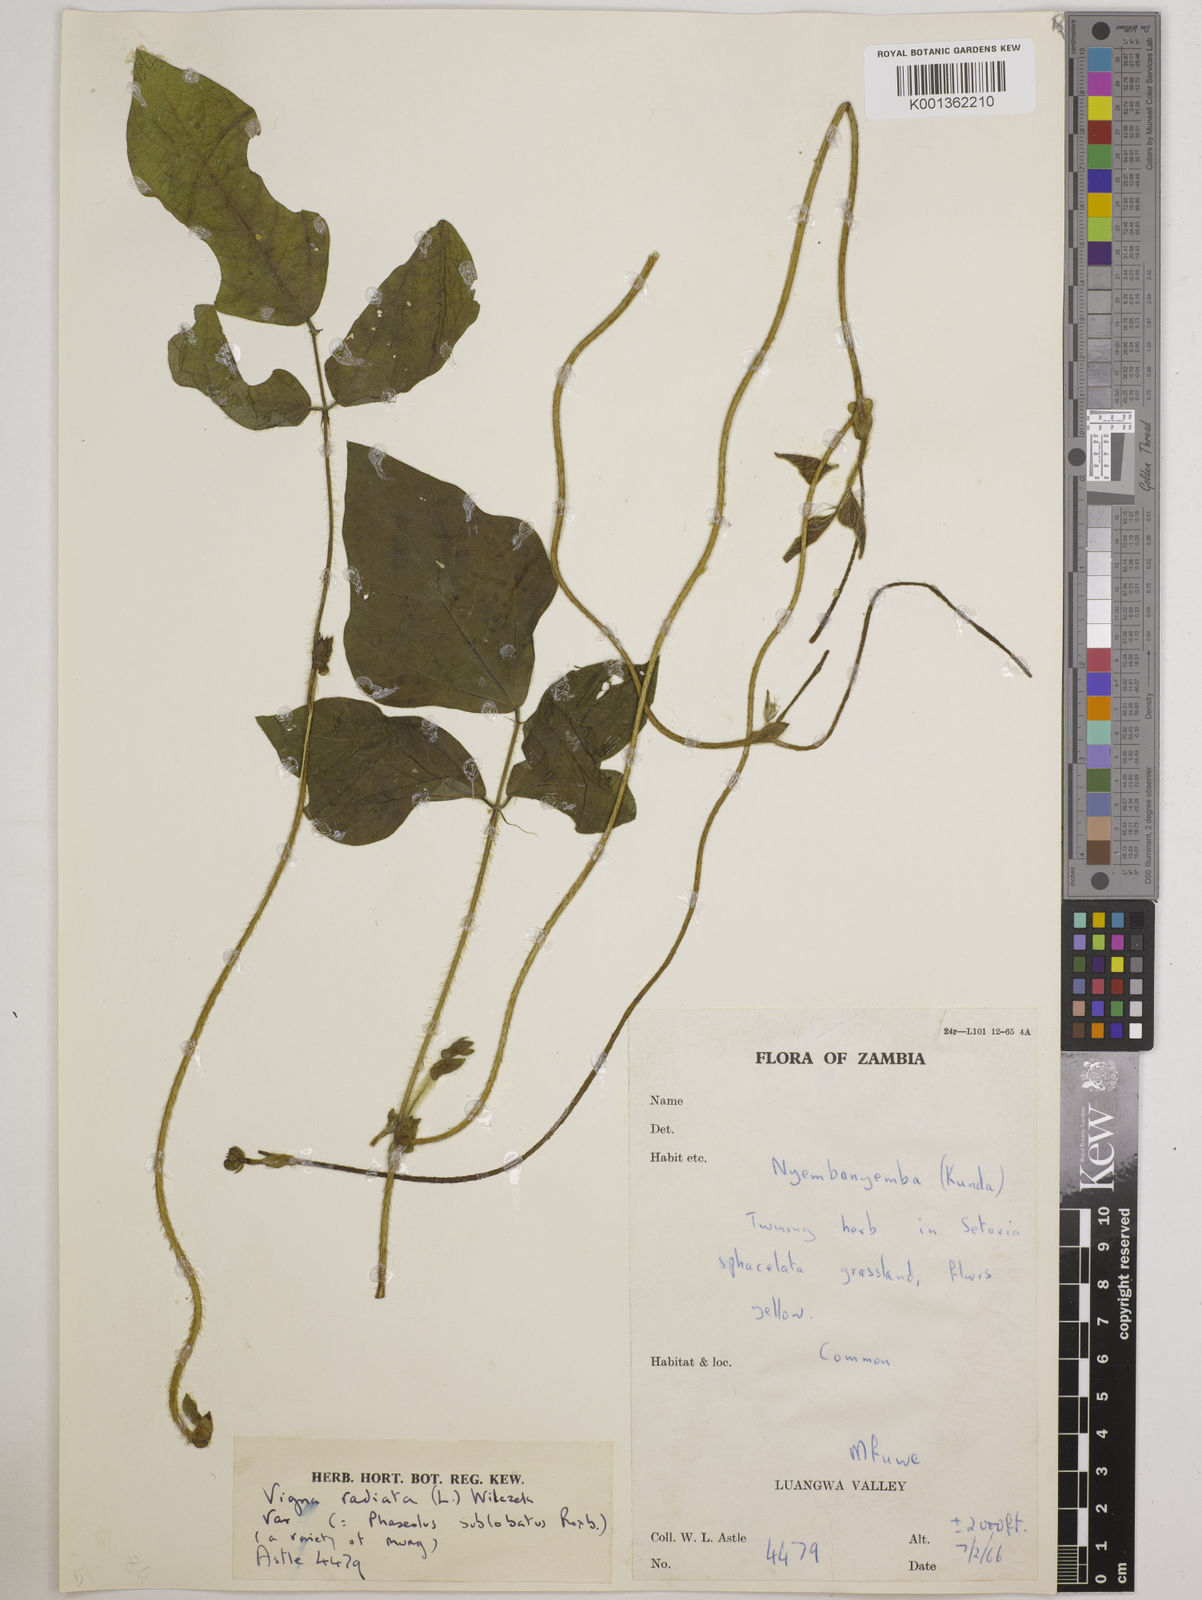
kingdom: Plantae
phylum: Tracheophyta
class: Magnoliopsida
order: Fabales
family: Fabaceae
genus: Vigna
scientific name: Vigna radiata
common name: Mung-bean
